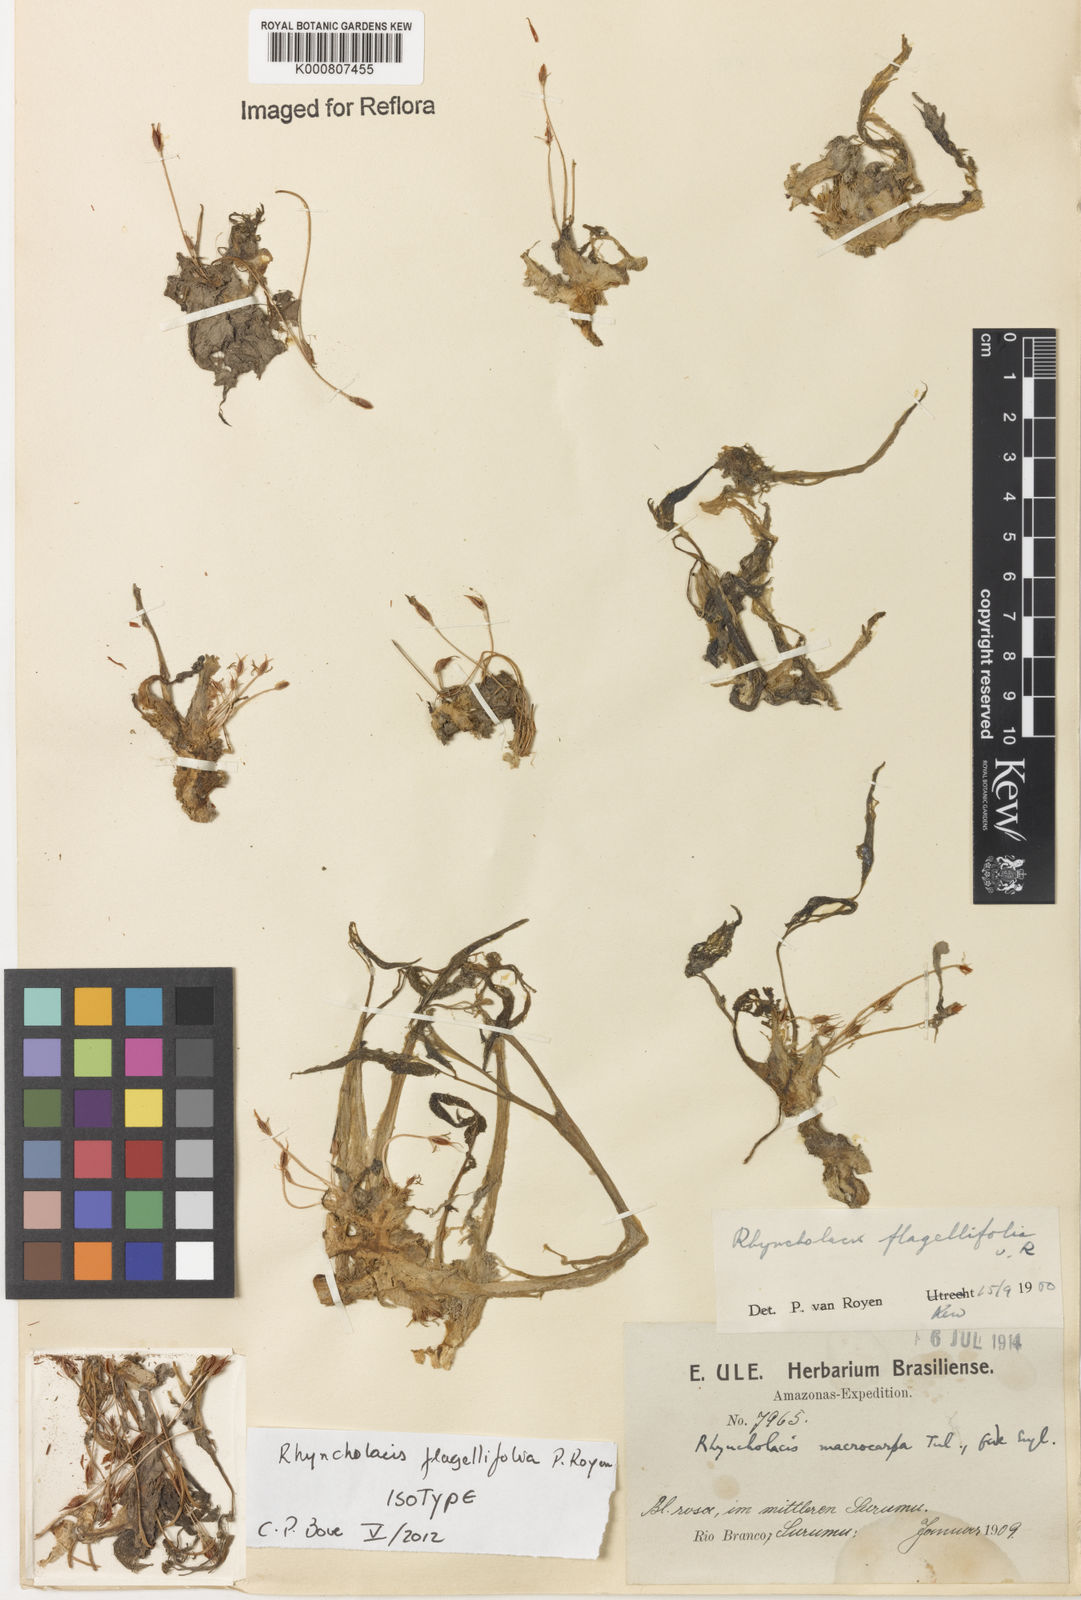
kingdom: Plantae
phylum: Tracheophyta
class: Magnoliopsida
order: Malpighiales
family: Podostemaceae
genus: Rhyncholacis
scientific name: Rhyncholacis flagellifolia
